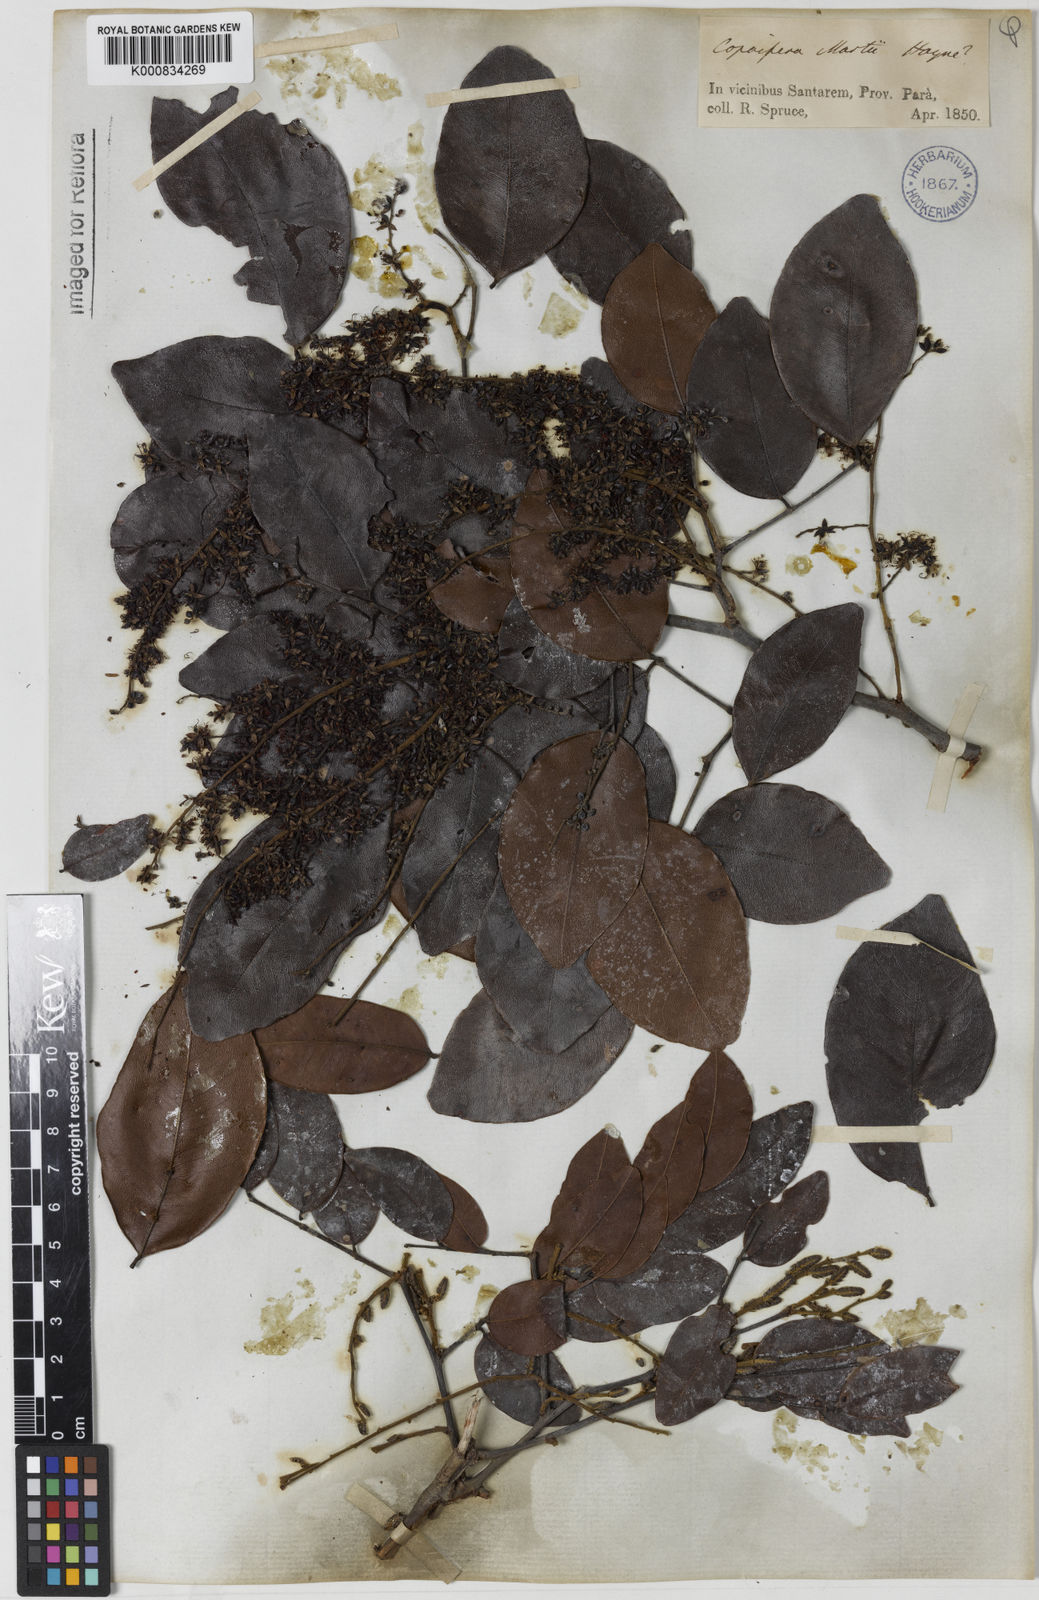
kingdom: Plantae
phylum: Tracheophyta
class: Magnoliopsida
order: Fabales
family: Fabaceae
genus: Copaifera
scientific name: Copaifera martii
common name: Copaiba
